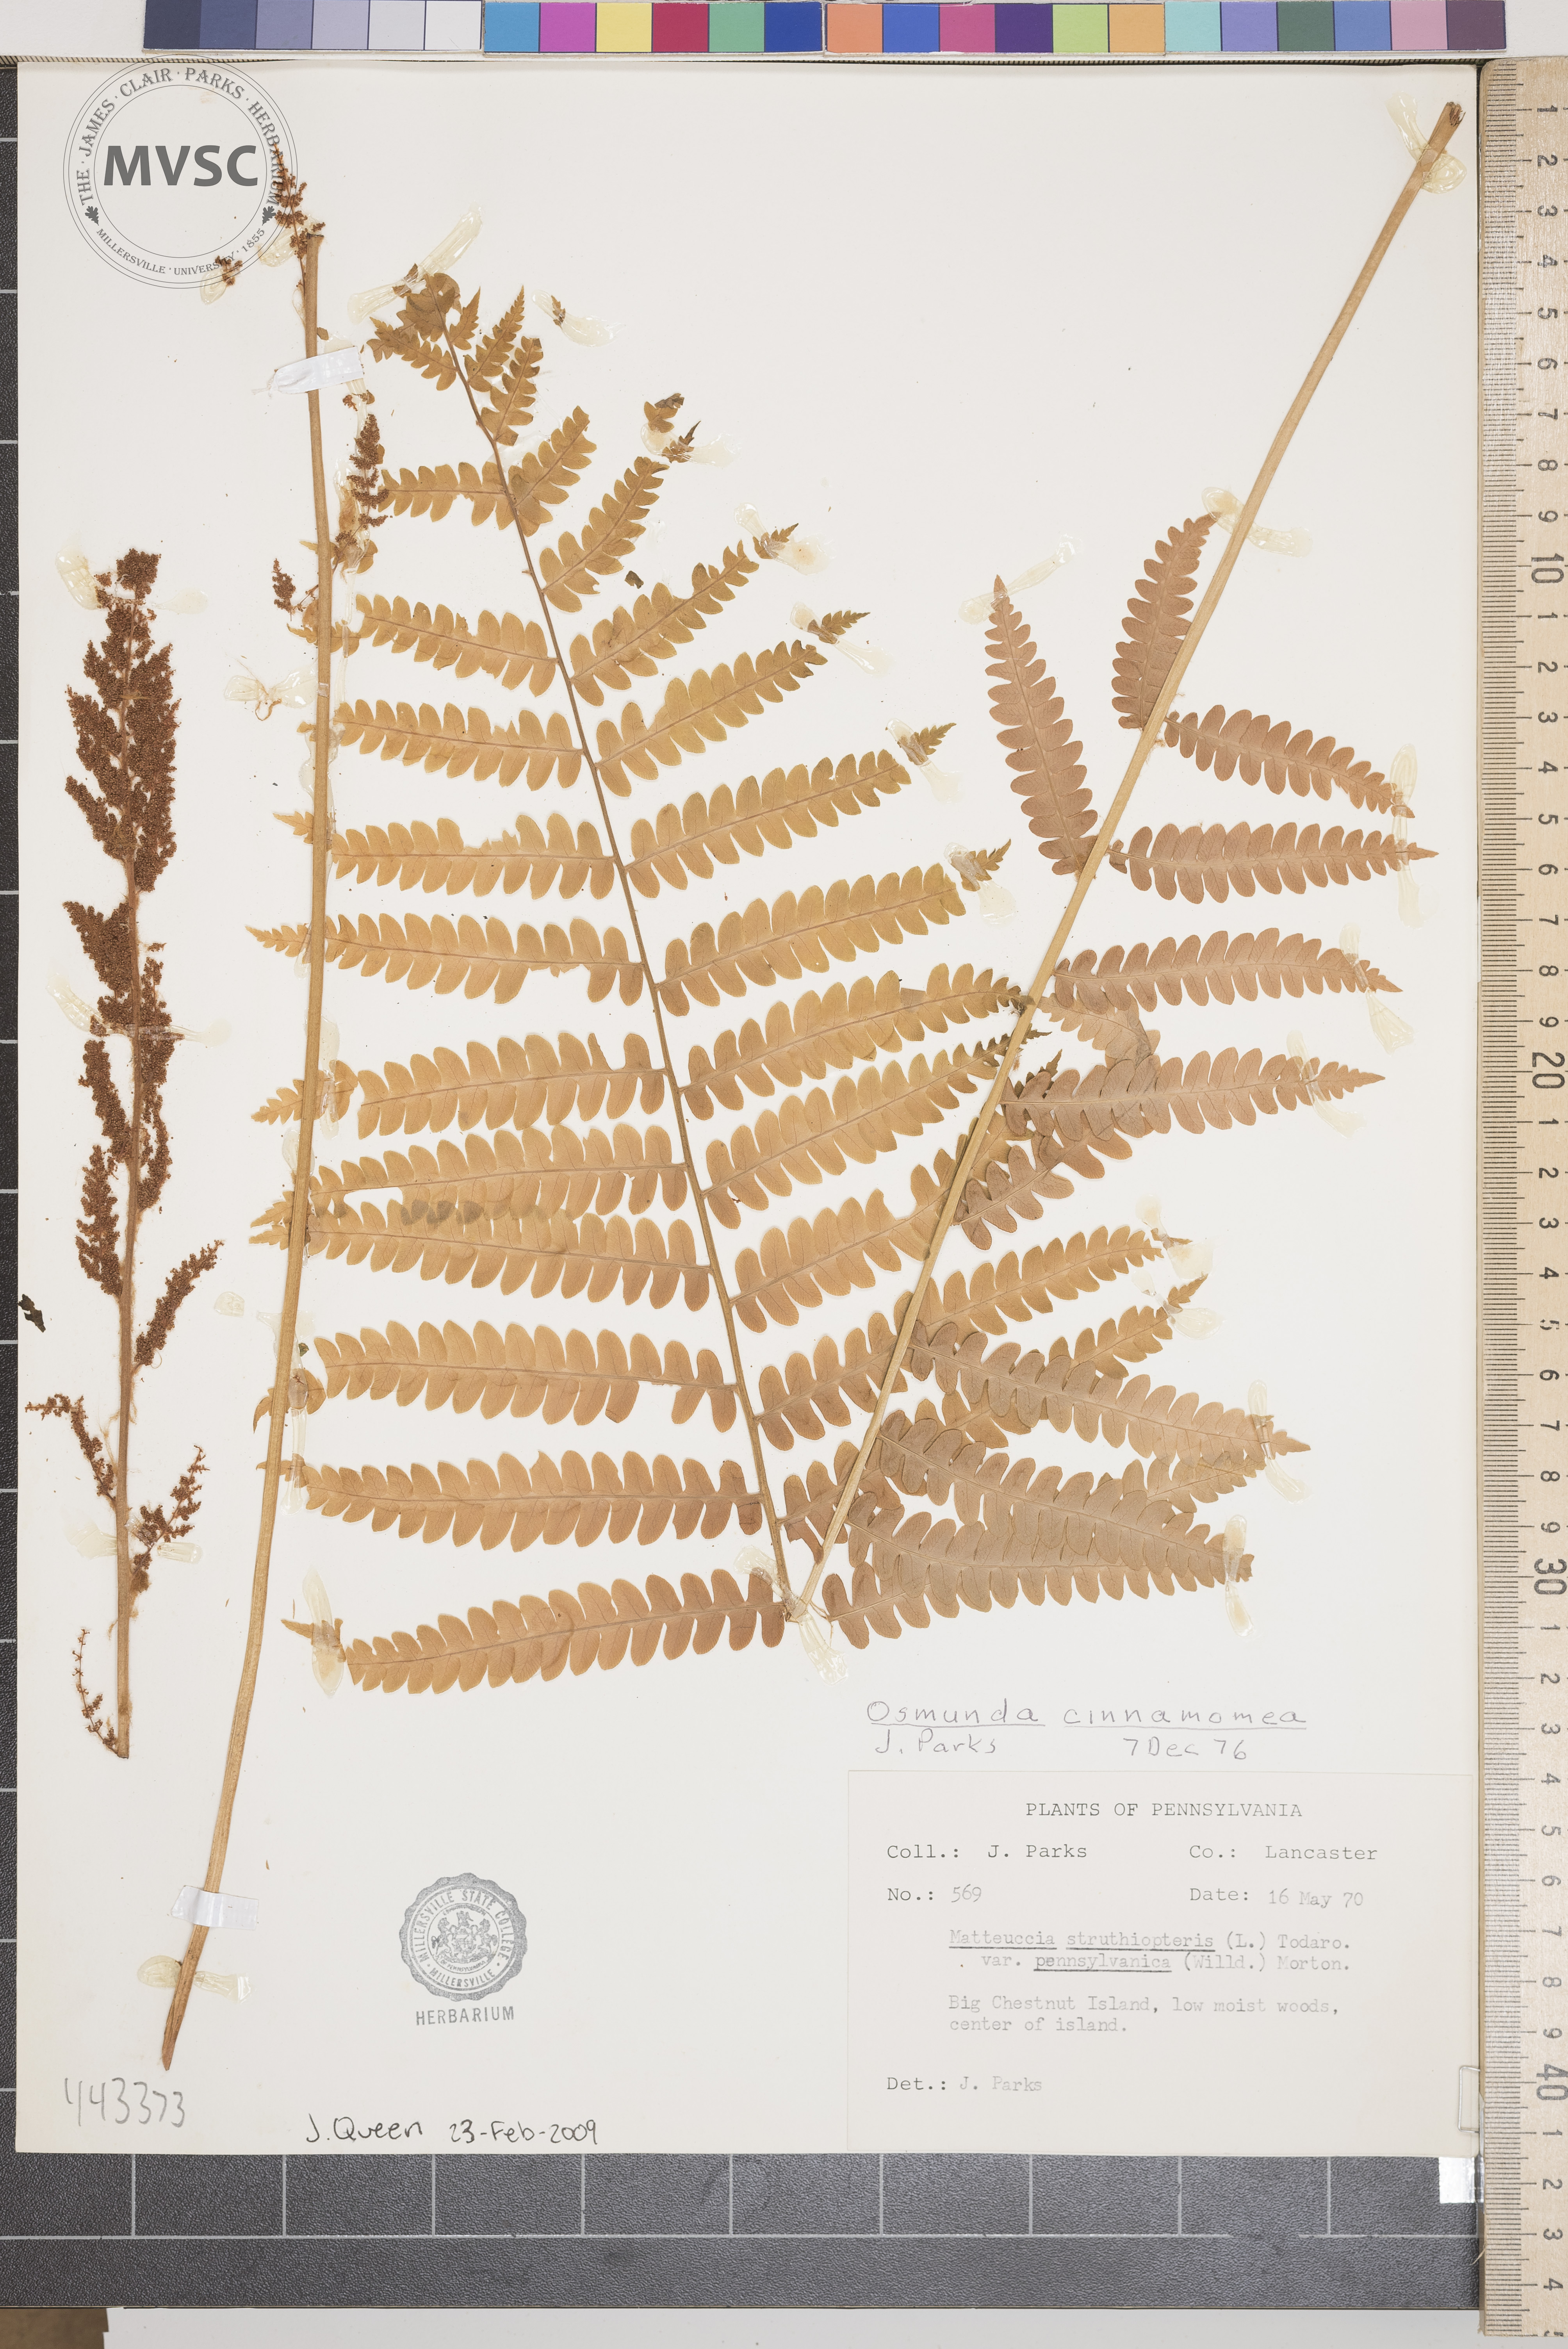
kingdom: Plantae
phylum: Tracheophyta
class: Polypodiopsida
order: Osmundales
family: Osmundaceae
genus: Osmundastrum
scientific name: Osmundastrum cinnamomeum
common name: Cinnamon fern
